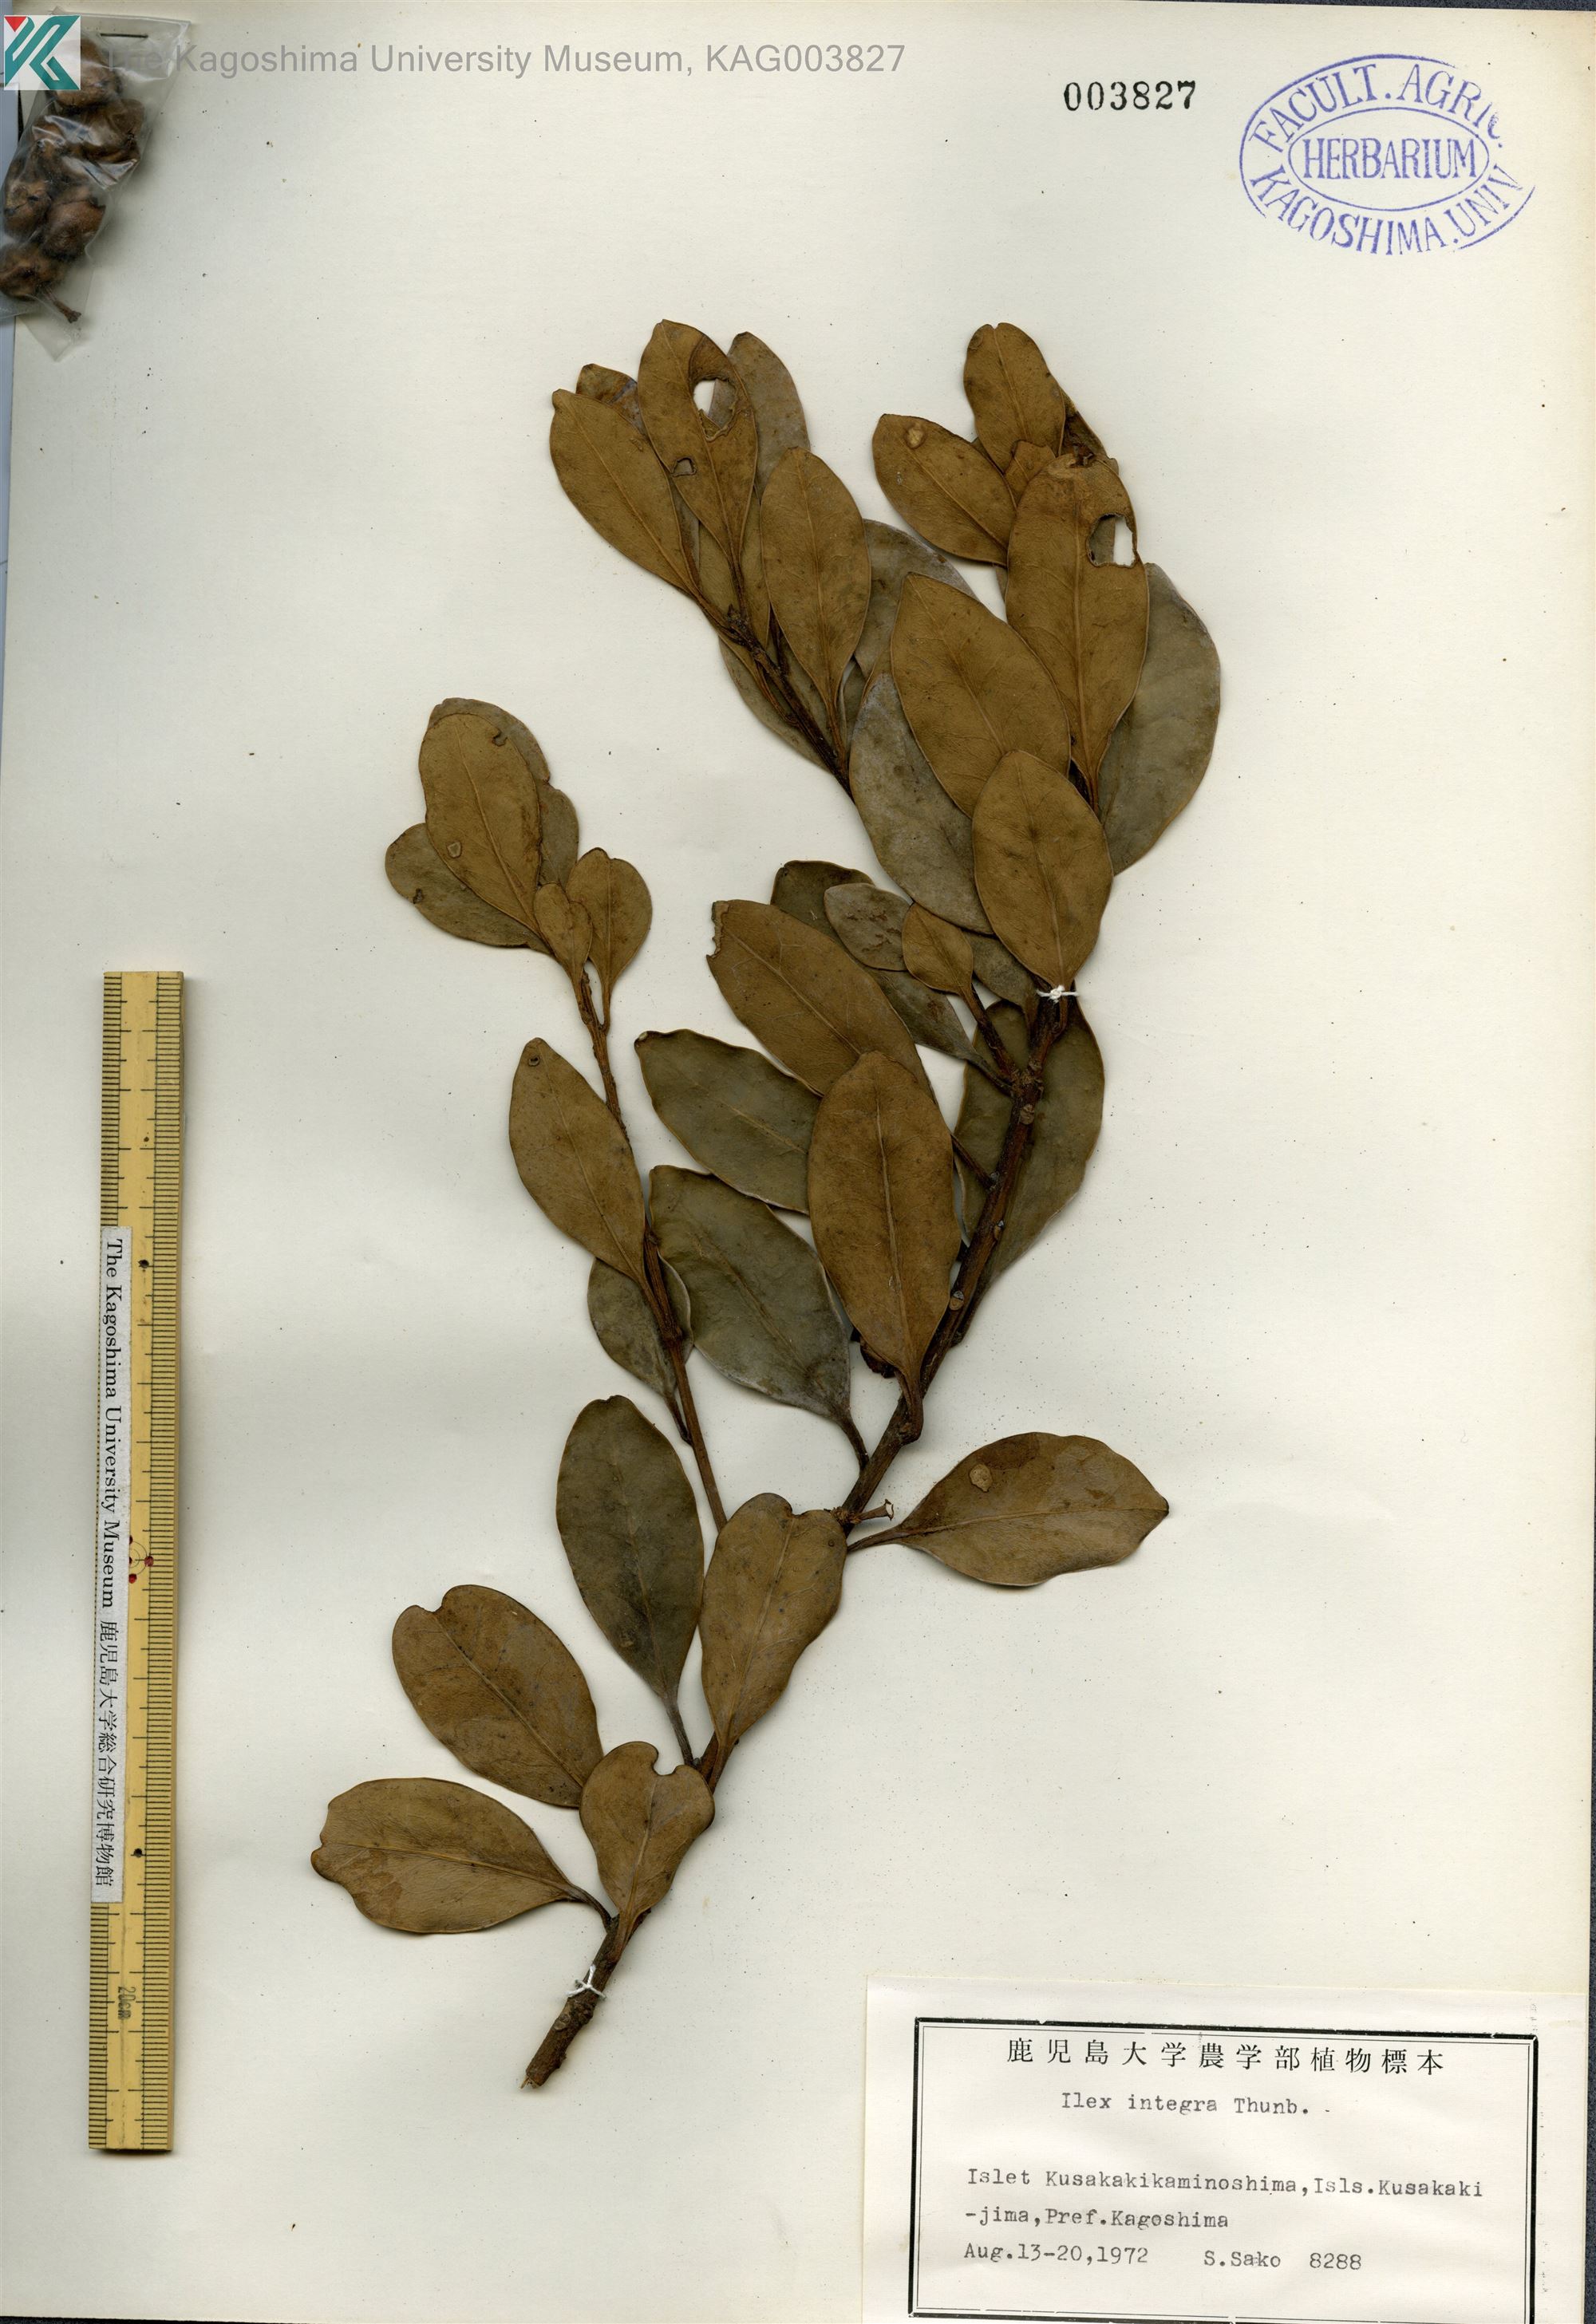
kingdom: Plantae
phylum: Tracheophyta
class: Magnoliopsida
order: Aquifoliales
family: Aquifoliaceae
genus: Ilex
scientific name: Ilex integra
